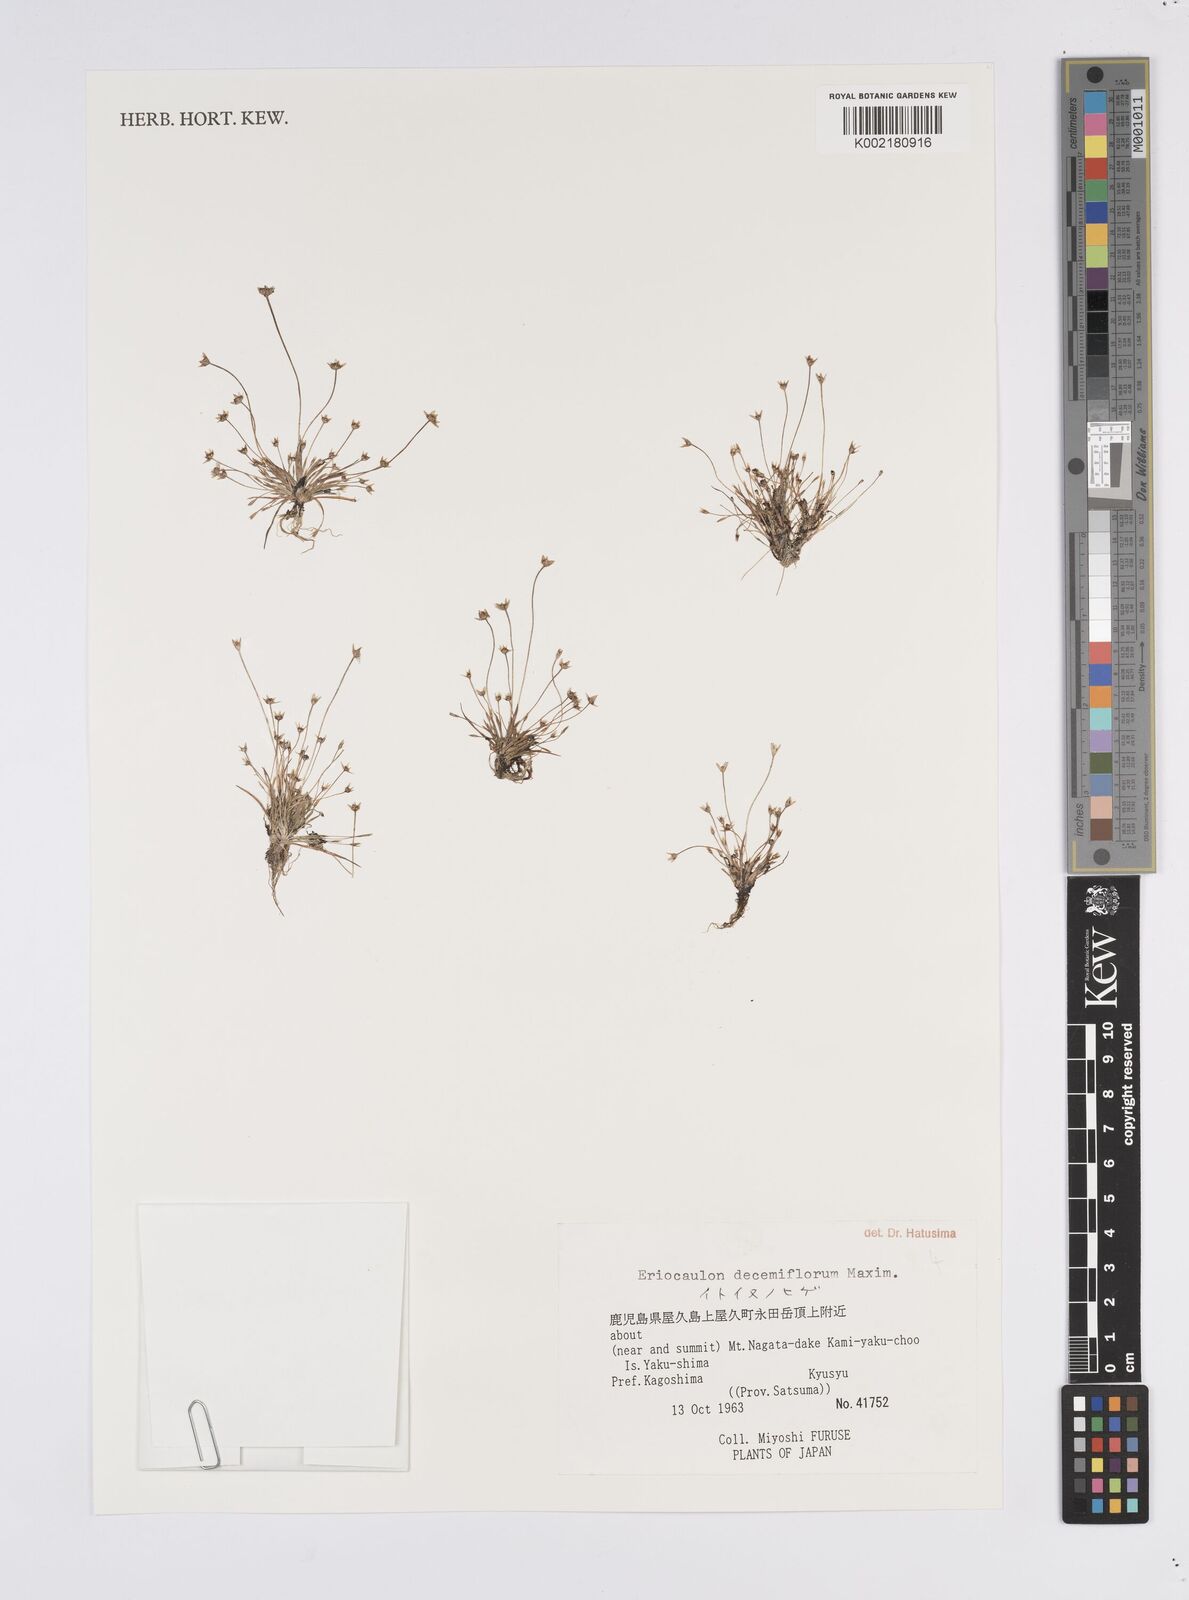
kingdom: Plantae
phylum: Tracheophyta
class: Liliopsida
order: Poales
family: Eriocaulaceae
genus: Eriocaulon
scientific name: Eriocaulon decemflorum
